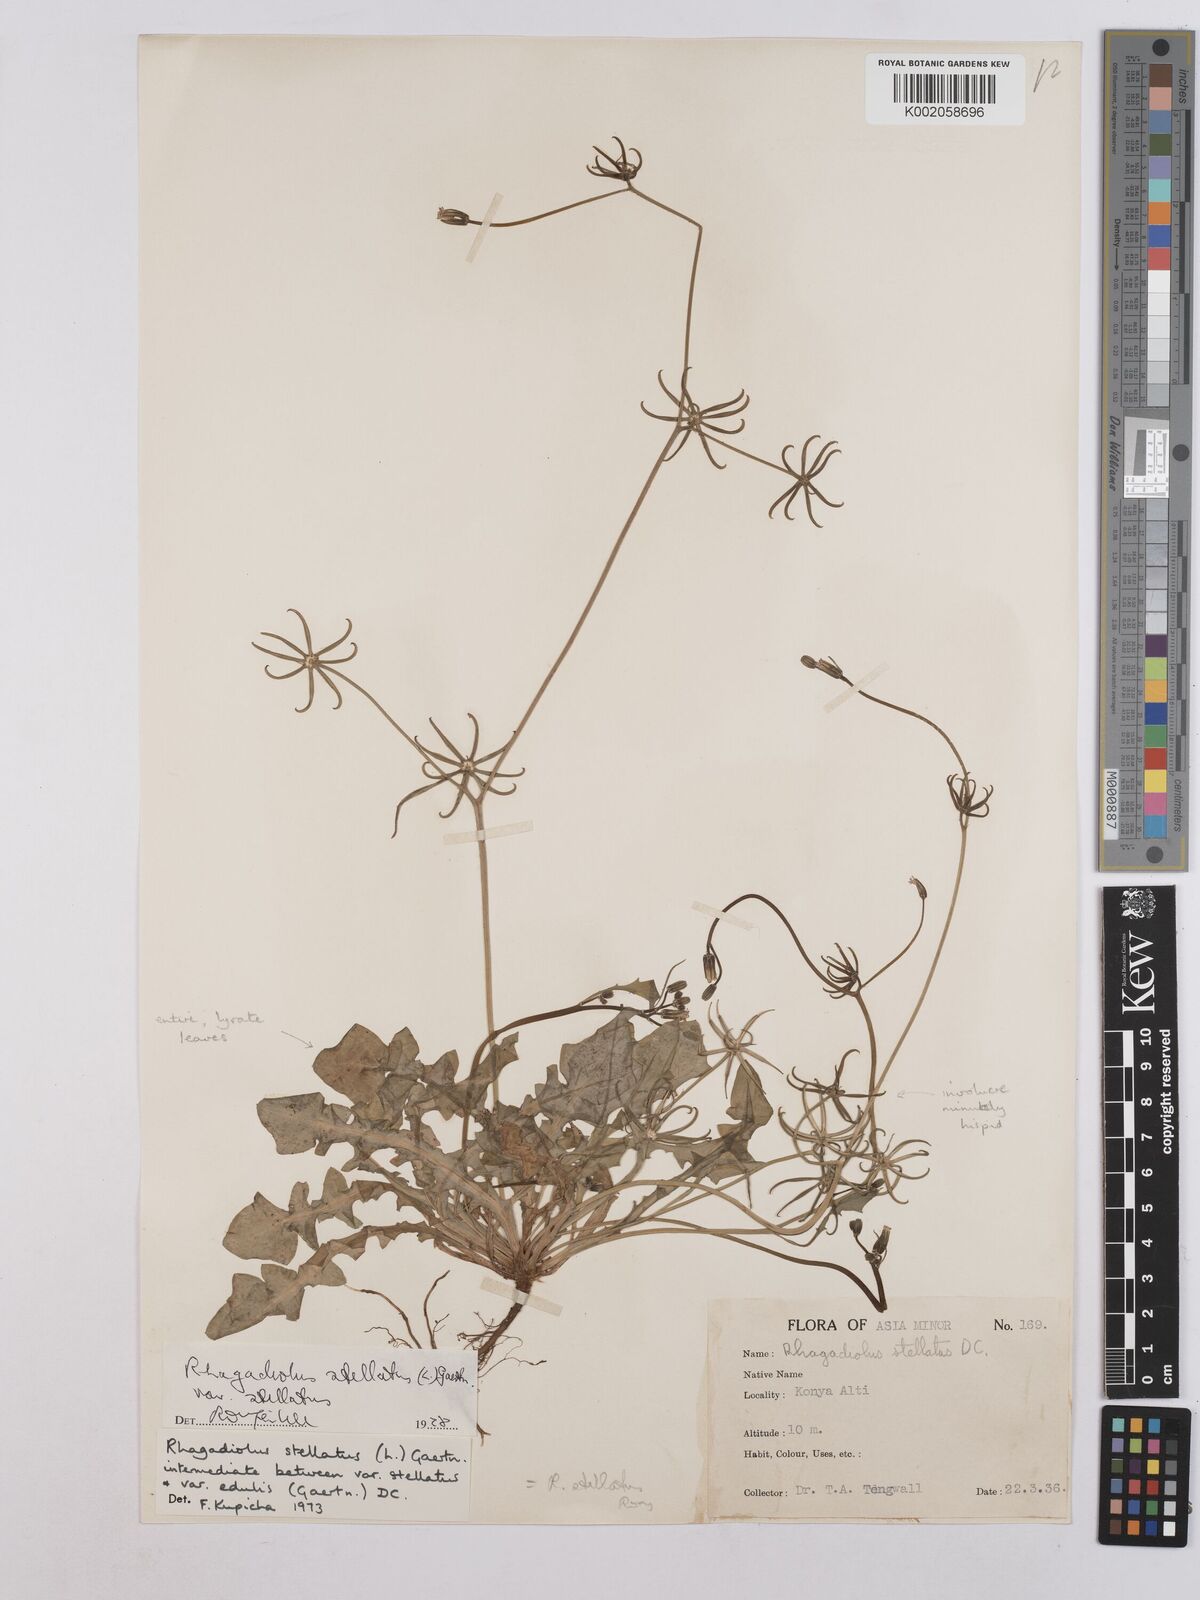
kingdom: Plantae
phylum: Tracheophyta
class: Magnoliopsida
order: Asterales
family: Asteraceae
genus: Rhagadiolus
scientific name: Rhagadiolus stellatus
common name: Star hawkbit
